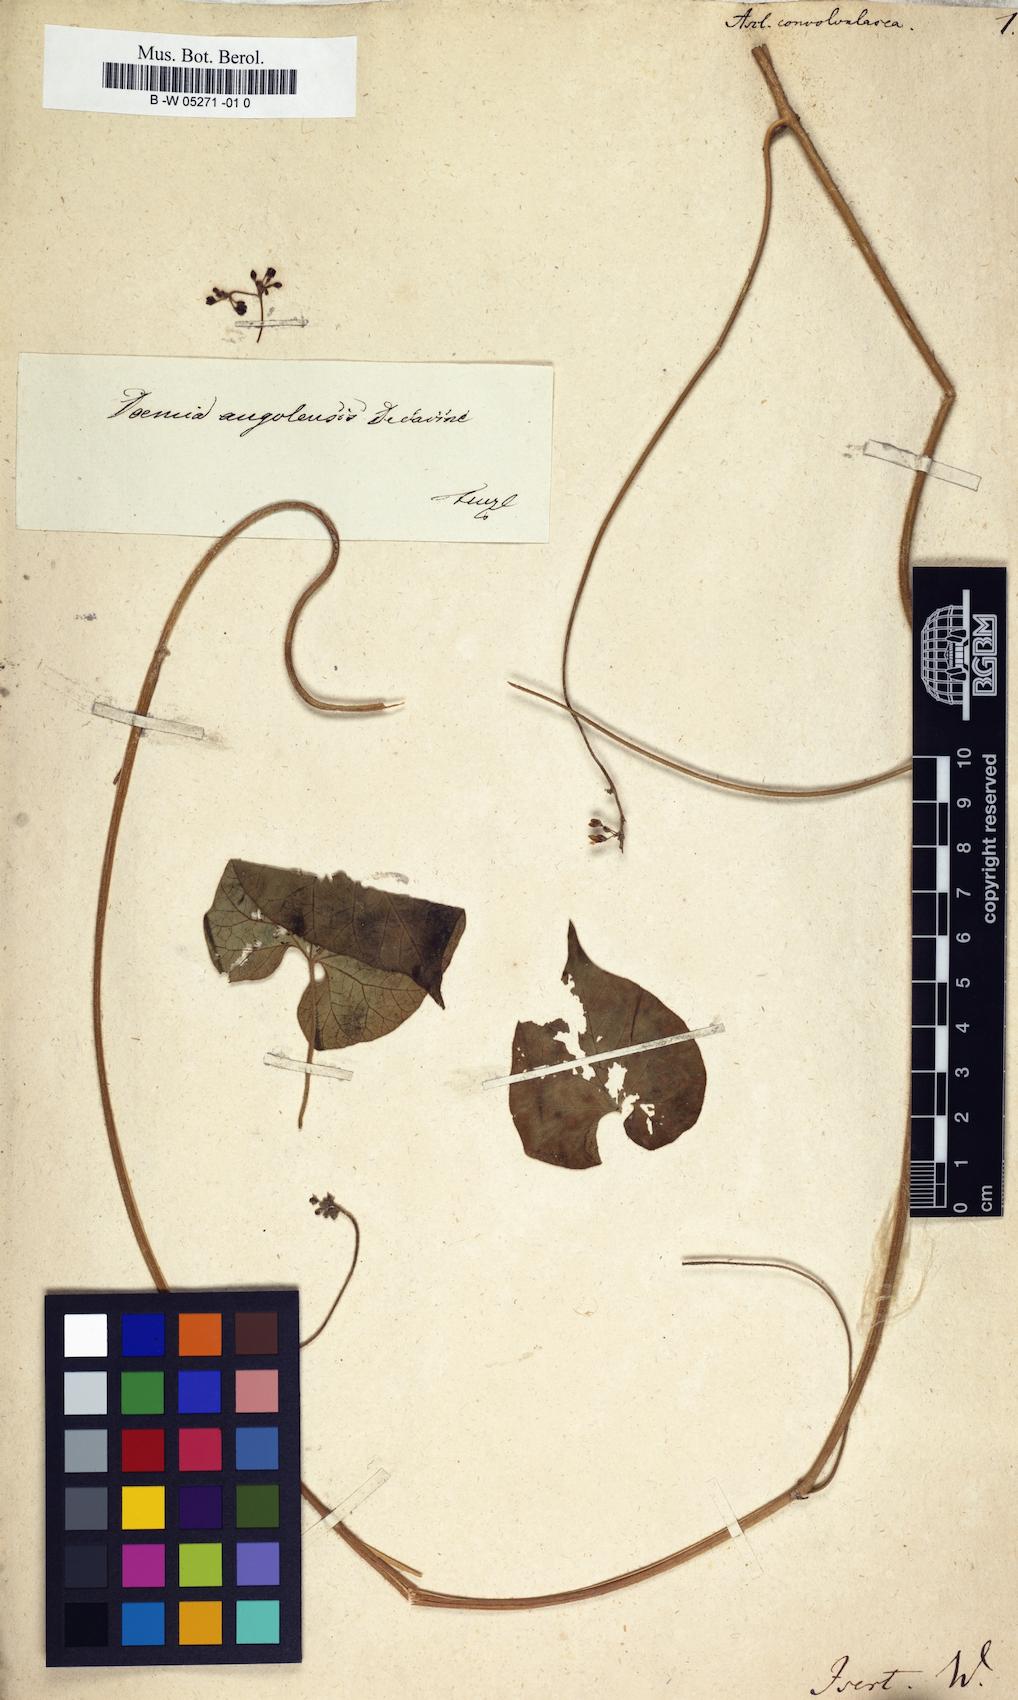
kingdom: Plantae
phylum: Tracheophyta
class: Magnoliopsida
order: Gentianales
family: Apocynaceae
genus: Pergularia
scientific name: Pergularia daemia
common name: Trellis-vine
